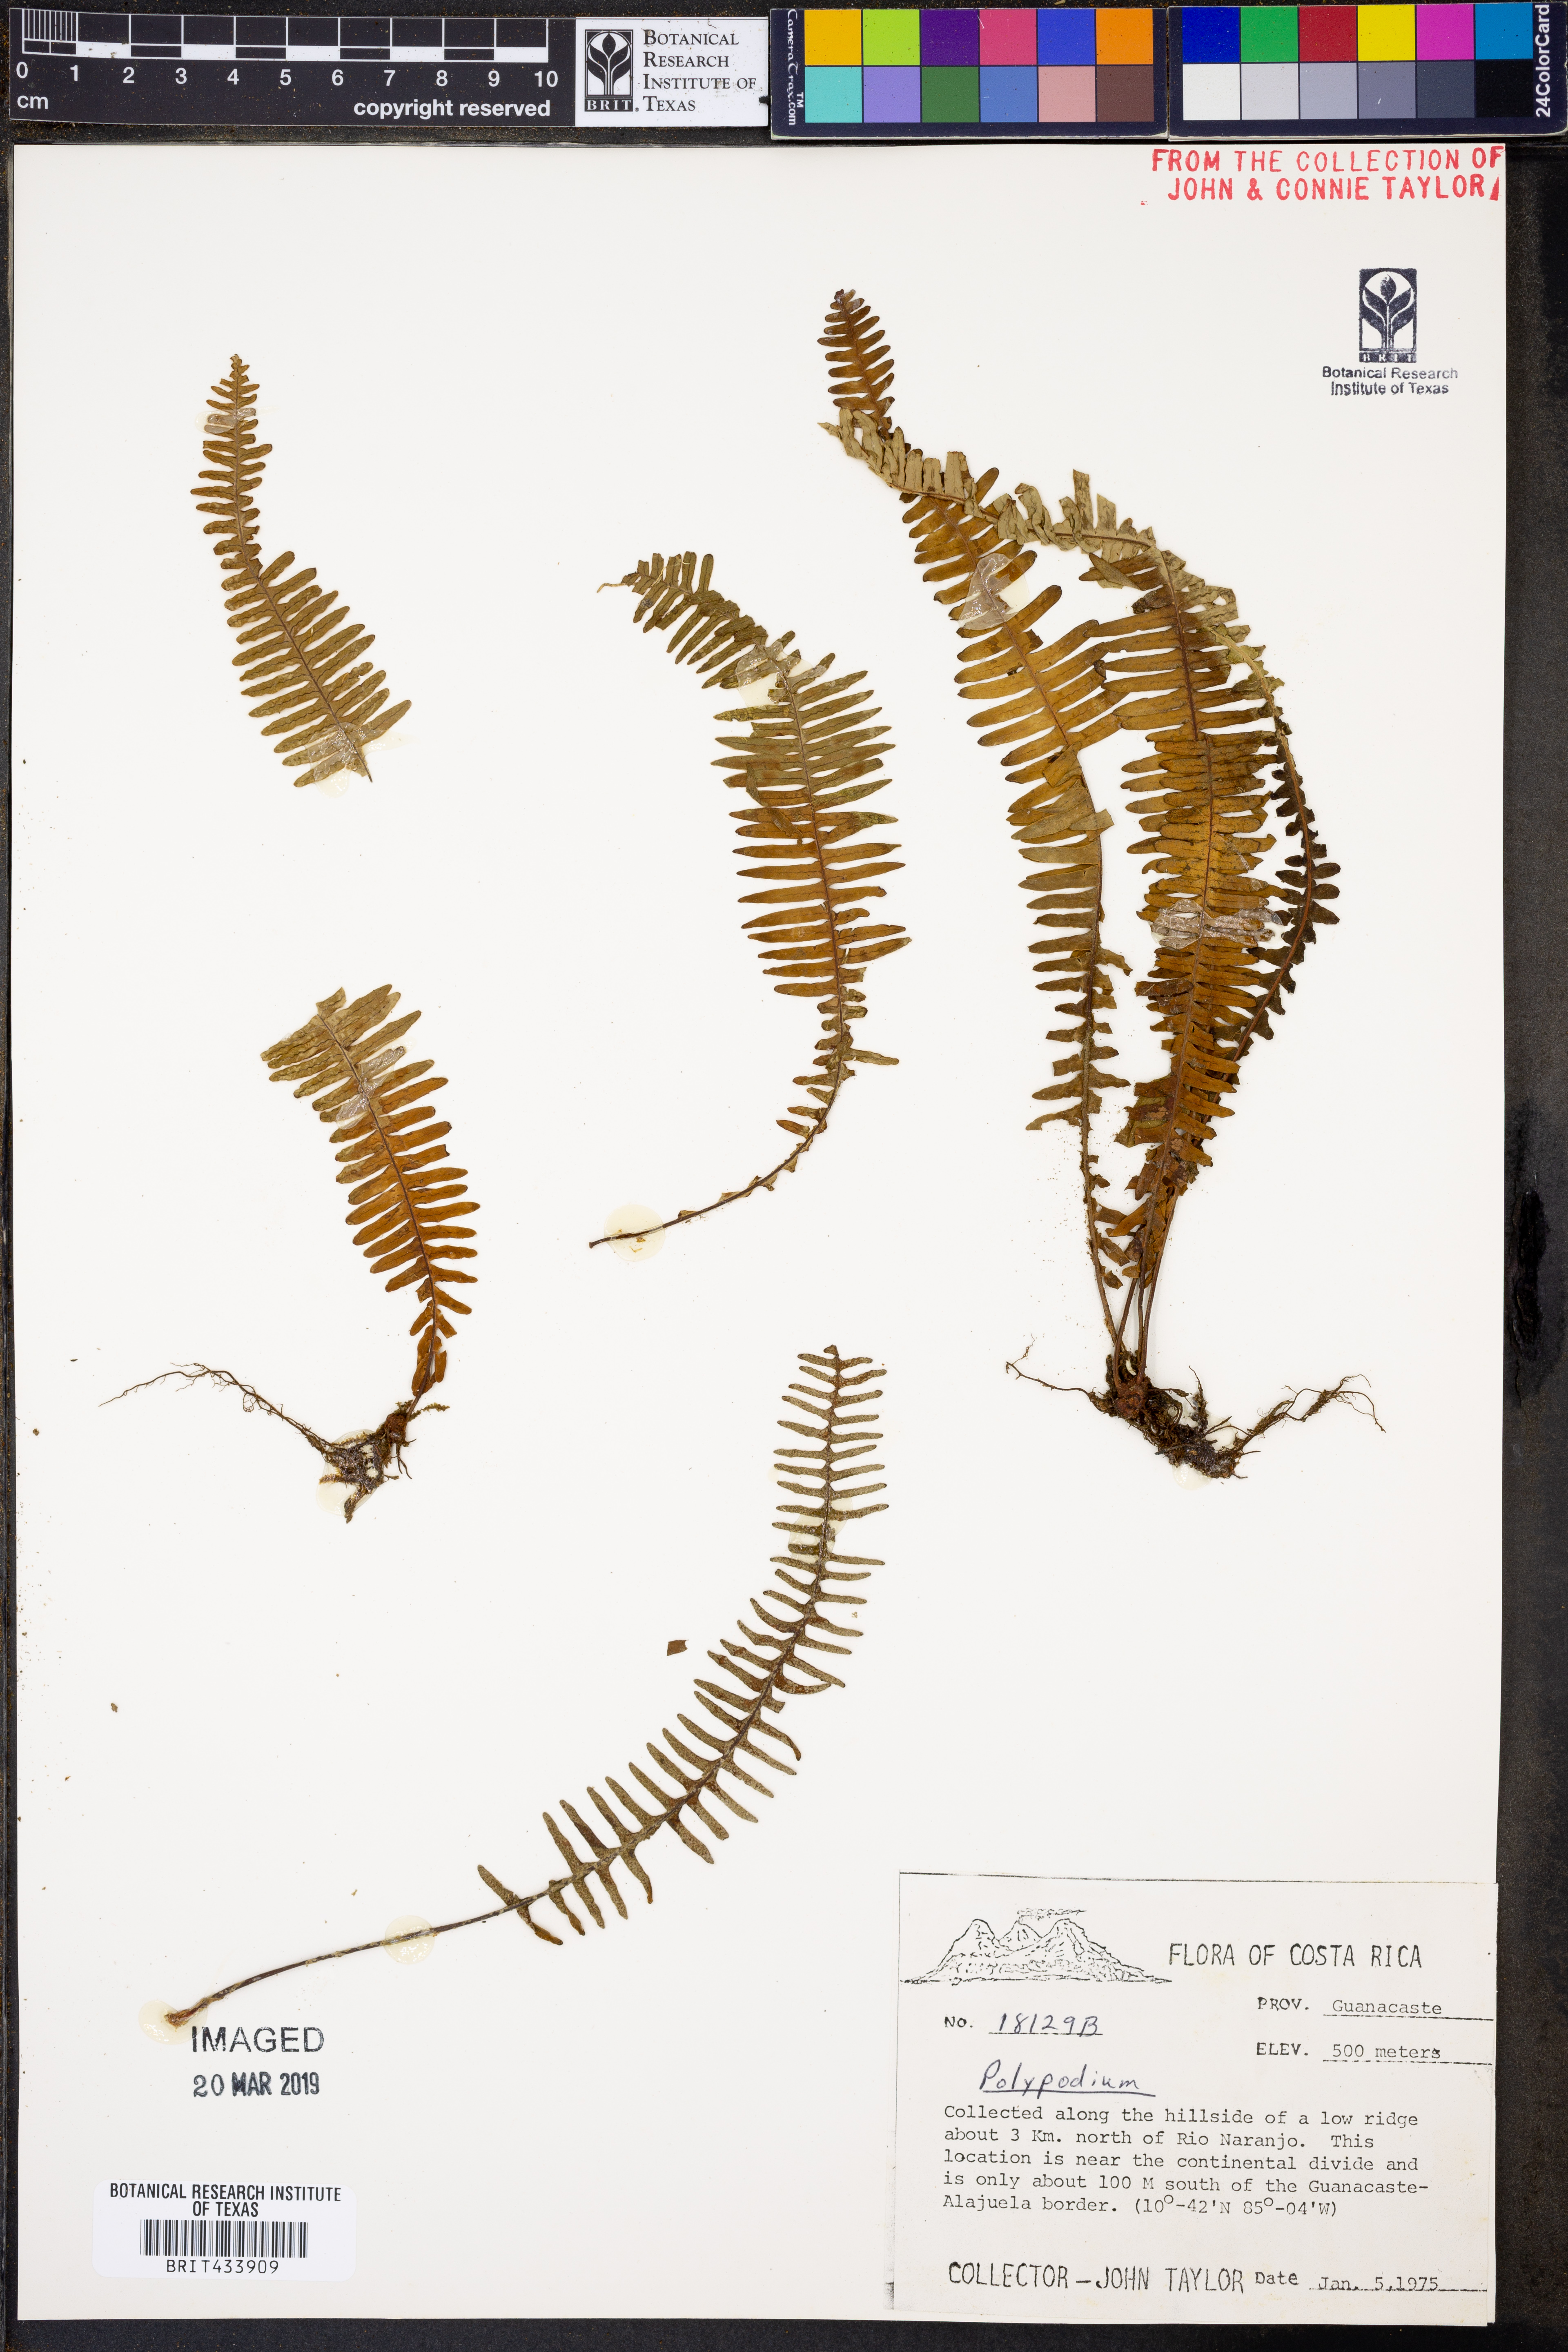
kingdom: Plantae
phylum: Tracheophyta
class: Polypodiopsida
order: Polypodiales
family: Polypodiaceae
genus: Polypodium
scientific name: Polypodium
